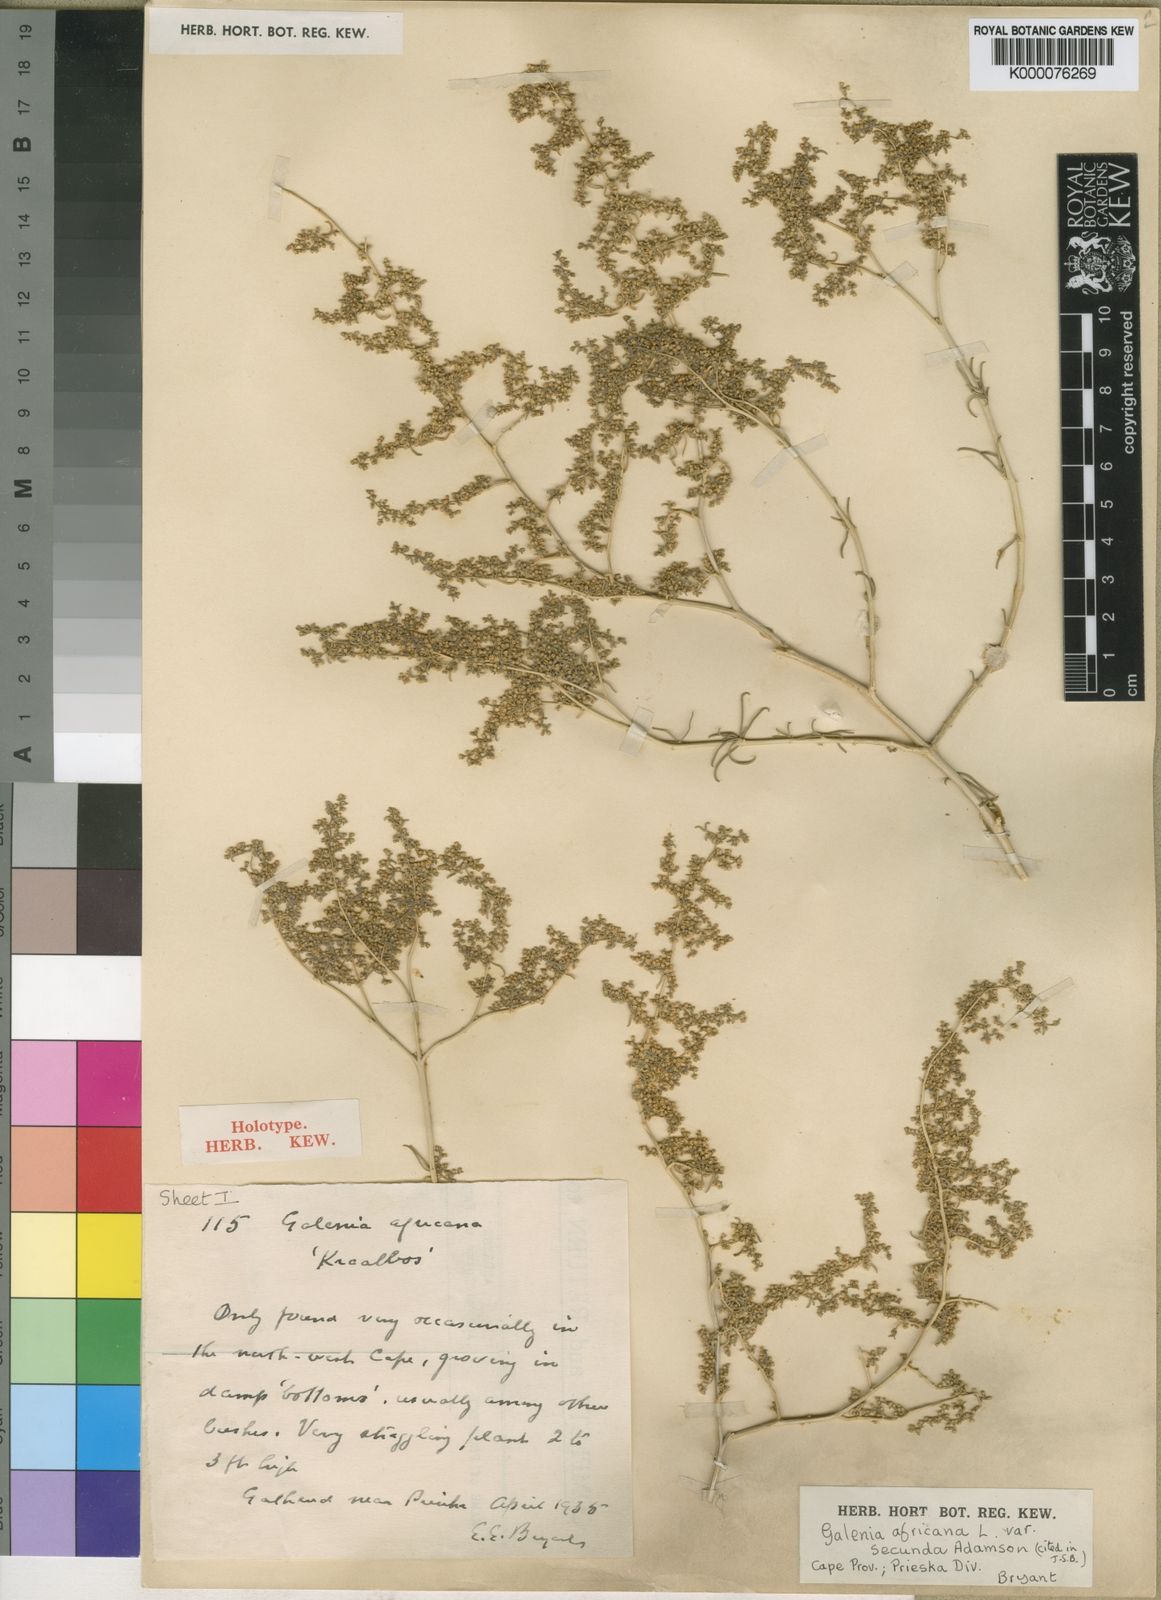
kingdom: Plantae
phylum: Tracheophyta
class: Magnoliopsida
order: Caryophyllales
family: Aizoaceae
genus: Aizoon
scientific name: Aizoon africanum
